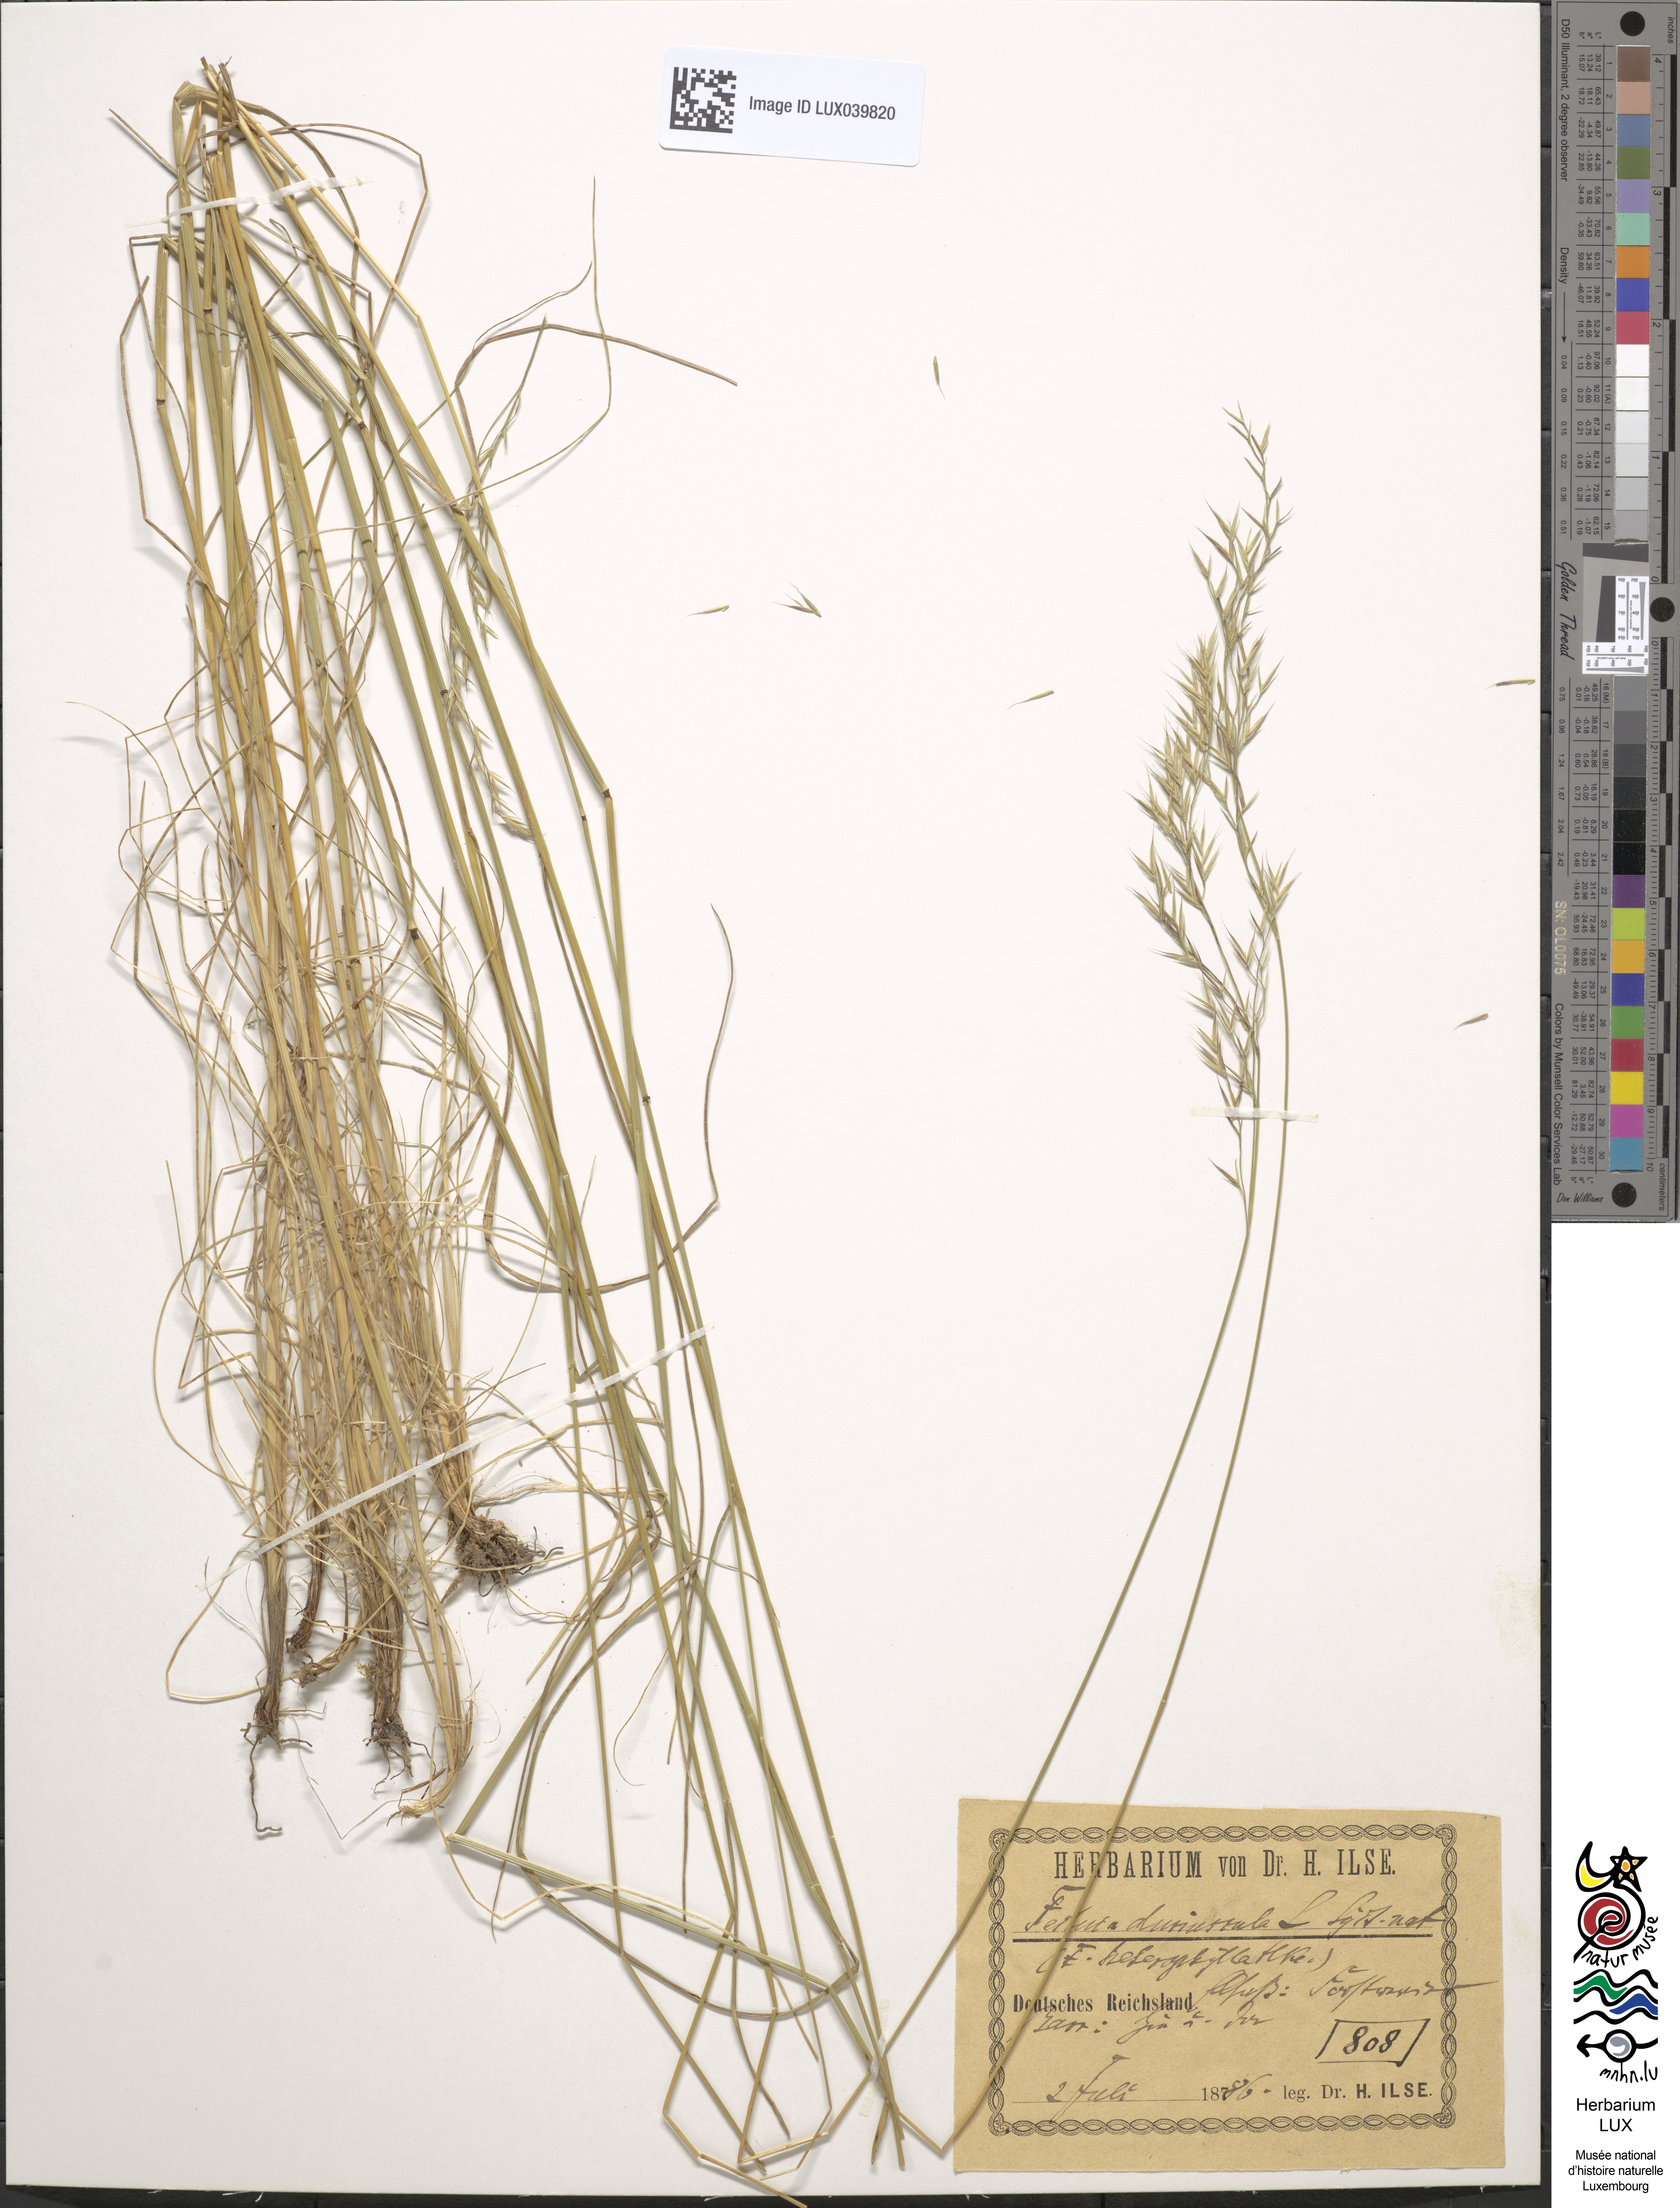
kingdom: Plantae
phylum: Tracheophyta
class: Liliopsida
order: Poales
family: Poaceae
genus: Festuca
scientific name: Festuca rubra
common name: Red fescue
